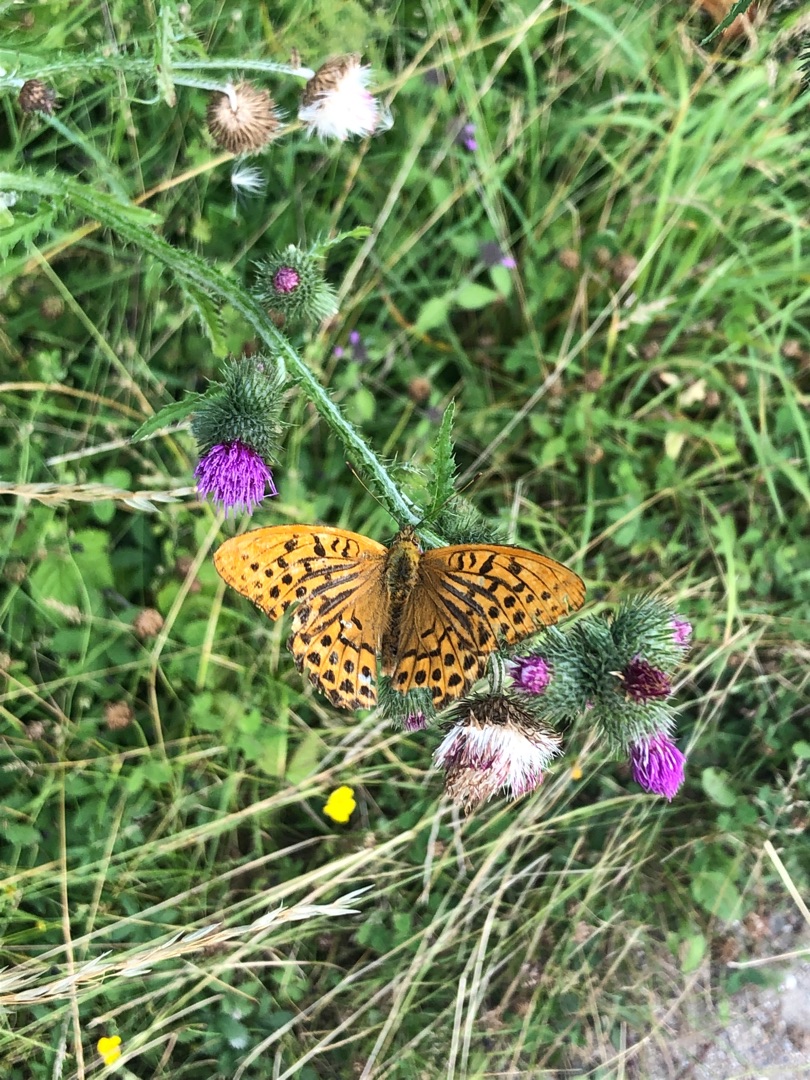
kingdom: Animalia
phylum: Arthropoda
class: Insecta
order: Lepidoptera
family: Nymphalidae
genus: Argynnis
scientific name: Argynnis paphia
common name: Kejserkåbe
